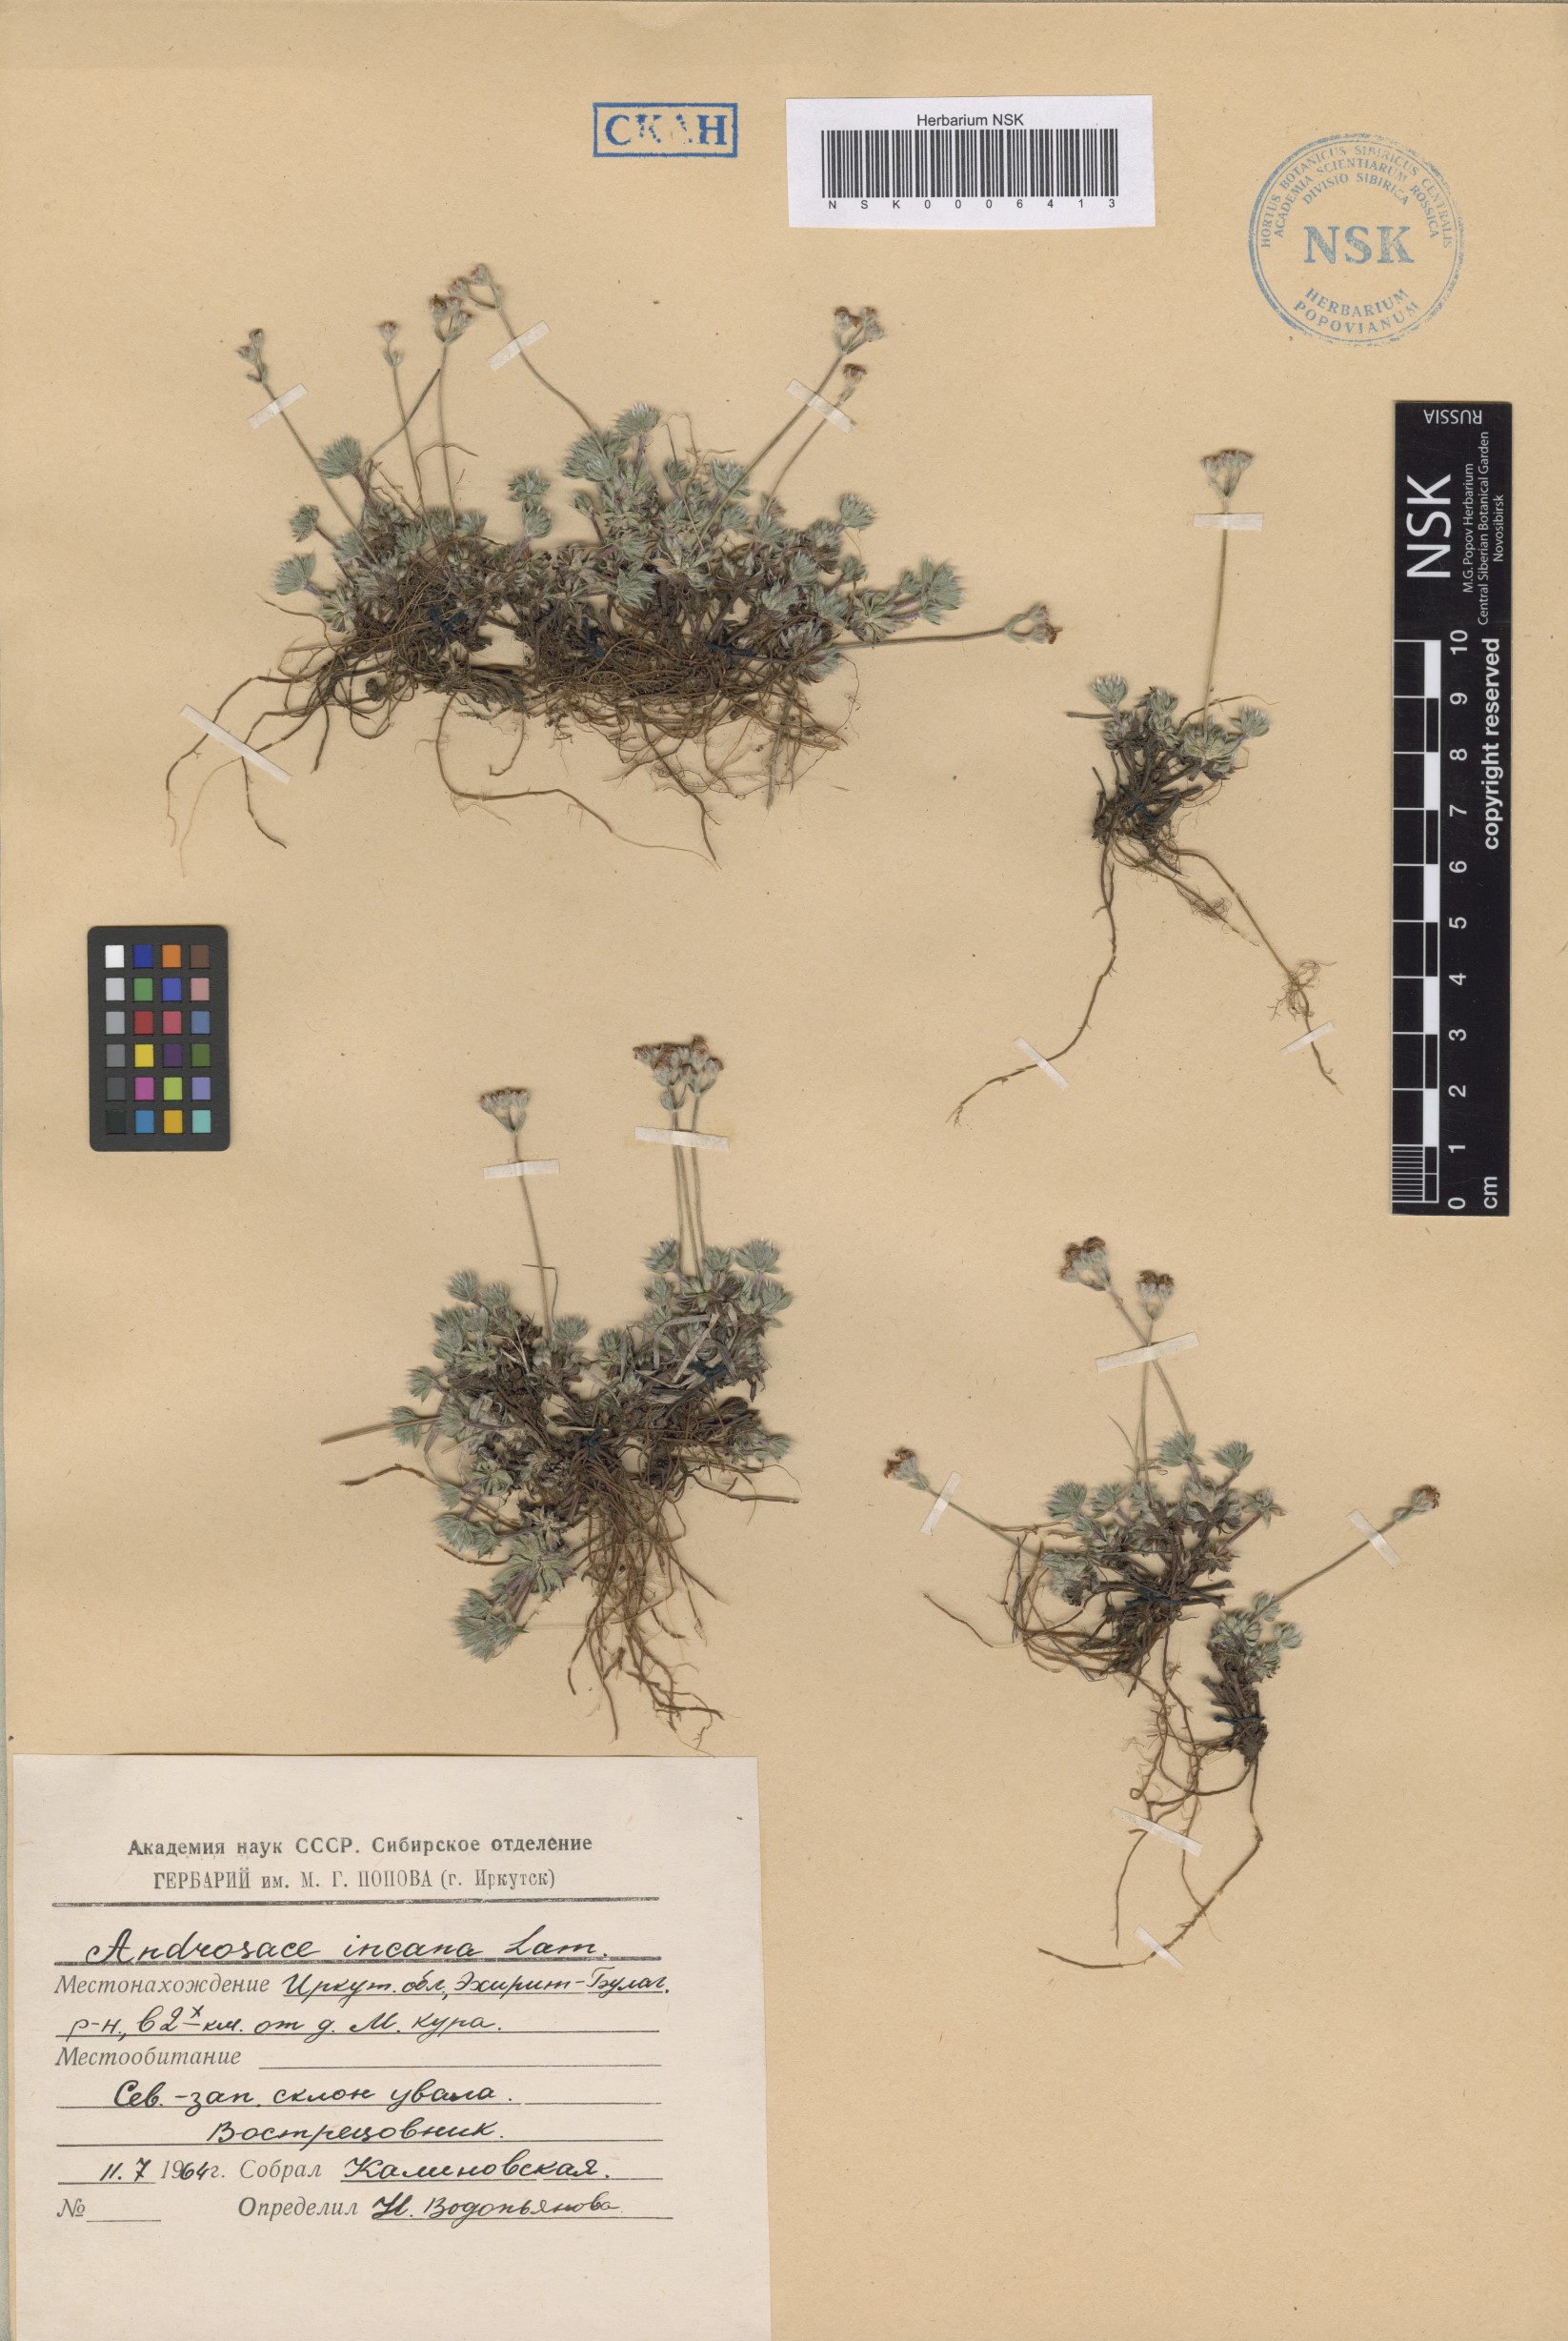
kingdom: Plantae
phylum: Tracheophyta
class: Magnoliopsida
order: Ericales
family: Primulaceae
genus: Androsace
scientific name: Androsace incana
